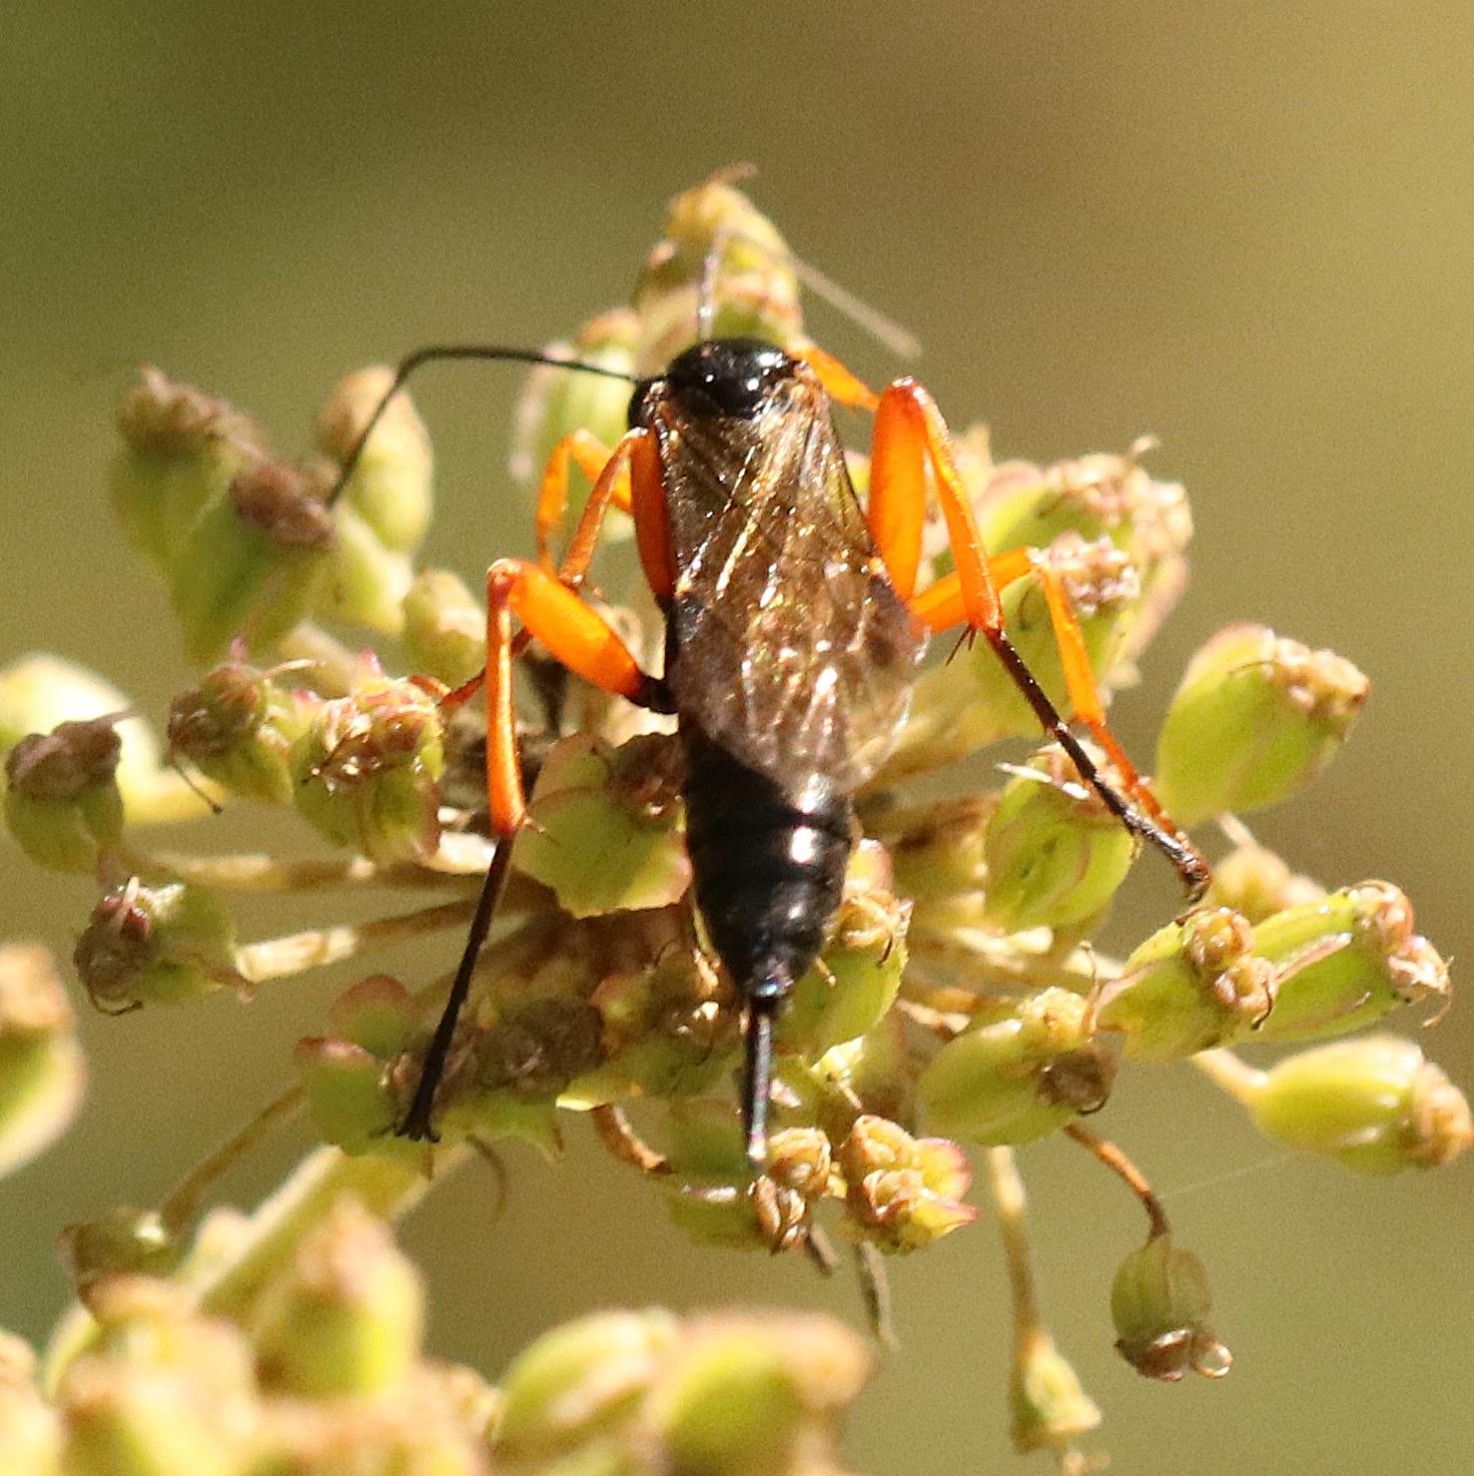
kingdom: Animalia
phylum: Arthropoda
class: Insecta
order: Hymenoptera
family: Ichneumonidae
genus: Pimpla
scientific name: Pimpla rufipes
